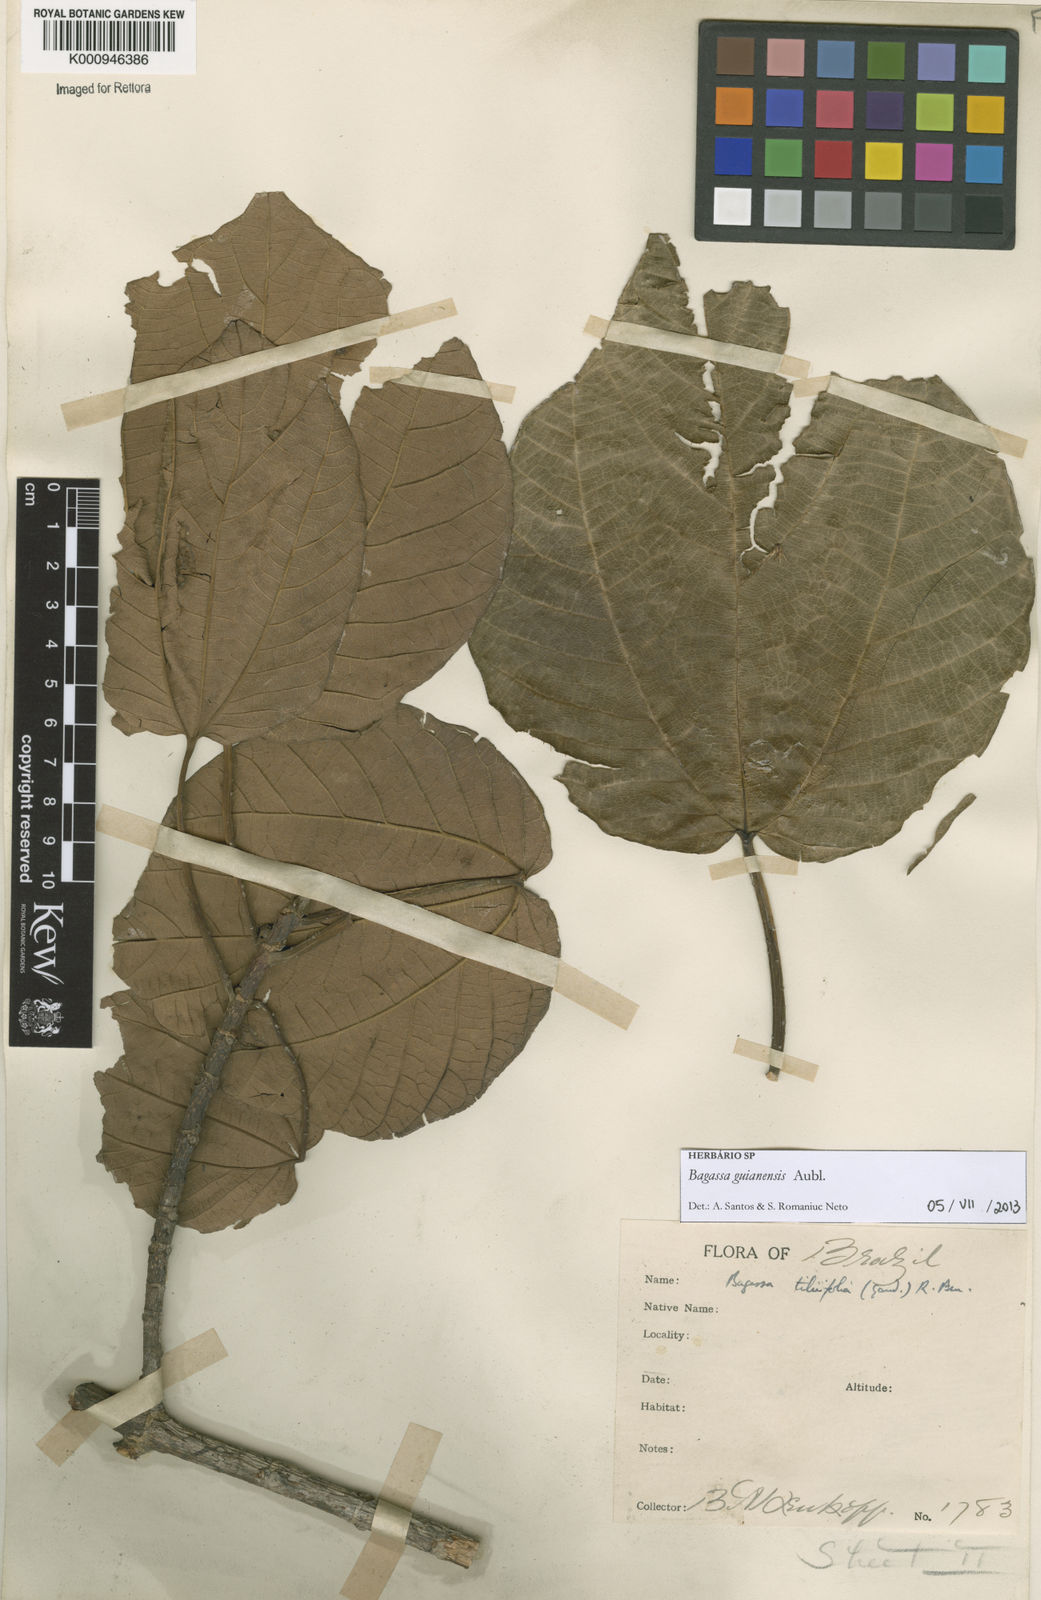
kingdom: Plantae
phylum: Tracheophyta
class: Magnoliopsida
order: Rosales
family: Moraceae
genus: Bagassa
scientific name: Bagassa guianensis
